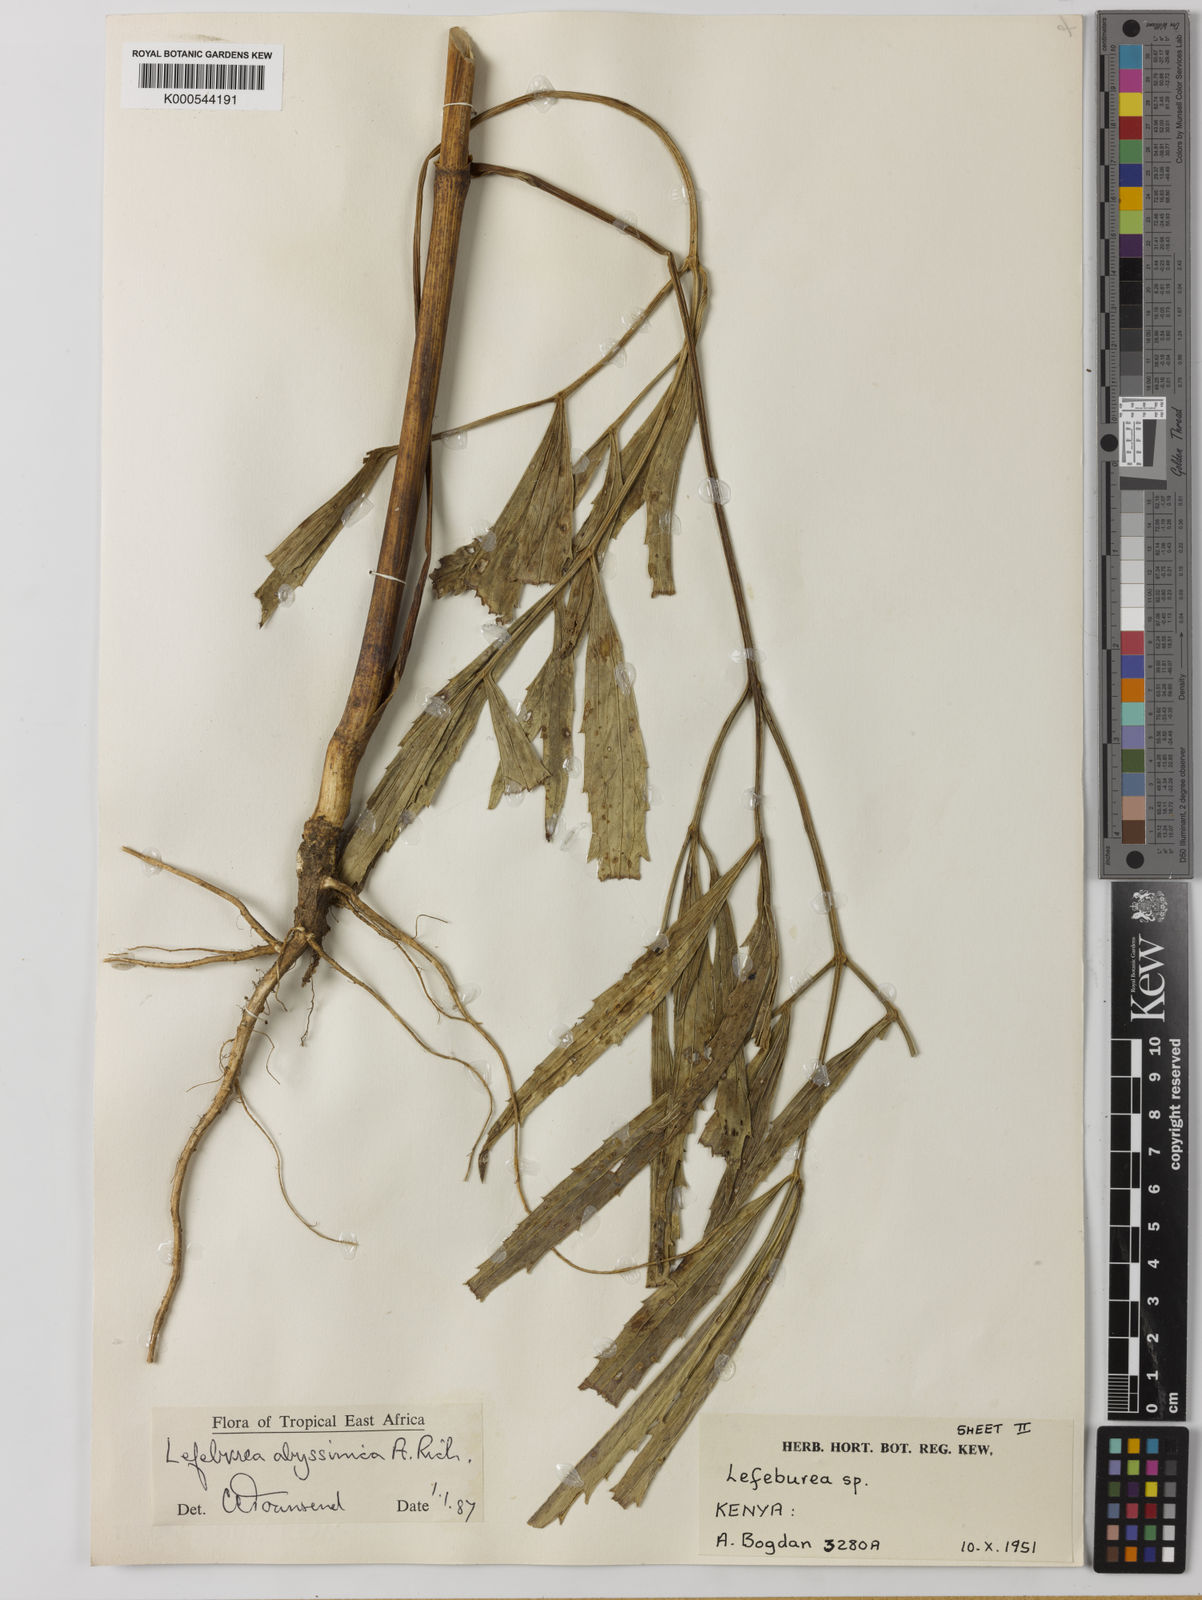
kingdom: Plantae
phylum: Tracheophyta
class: Magnoliopsida
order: Apiales
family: Apiaceae
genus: Lefebvrea
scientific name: Lefebvrea abyssinica
